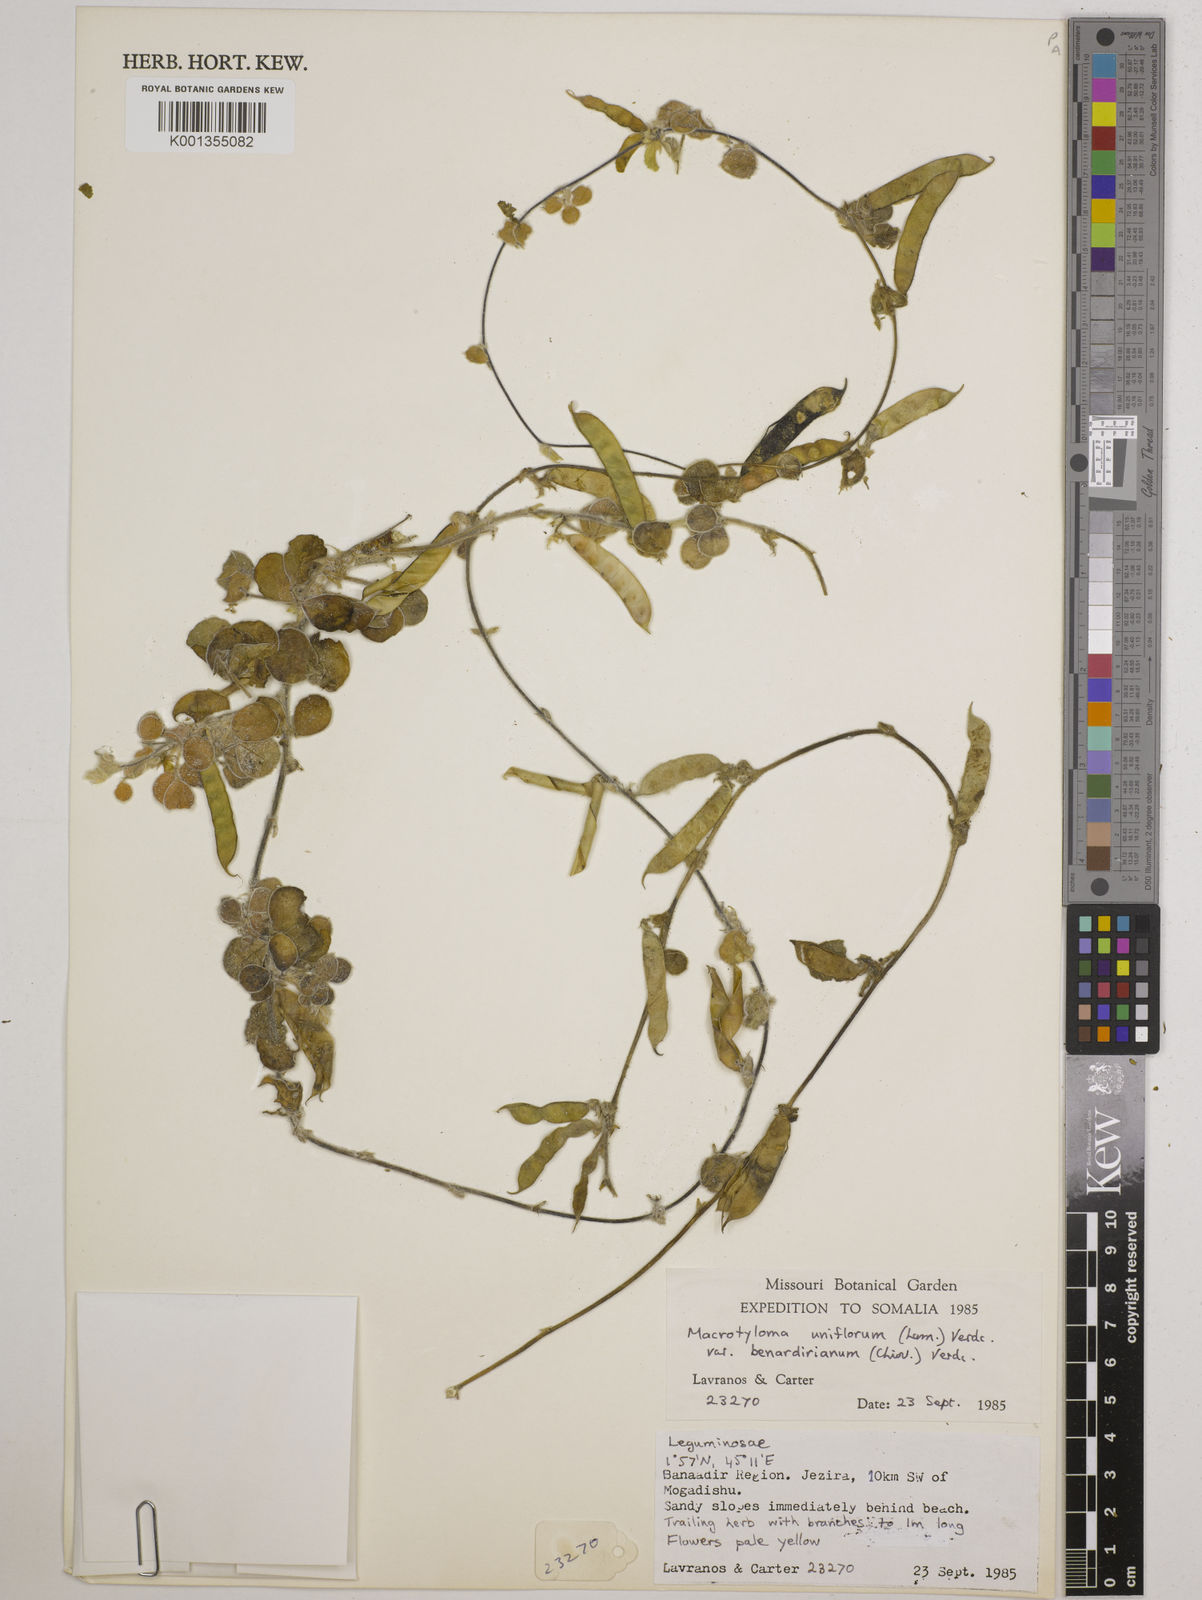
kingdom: Plantae
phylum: Tracheophyta
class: Magnoliopsida
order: Fabales
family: Fabaceae
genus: Macrotyloma
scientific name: Macrotyloma uniflorum
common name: Horse gram
